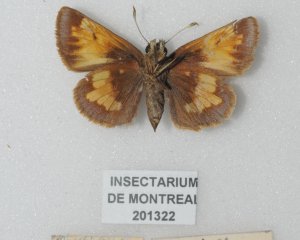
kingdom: Animalia
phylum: Arthropoda
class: Insecta
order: Lepidoptera
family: Hesperiidae
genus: Lon
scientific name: Lon hobomok
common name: Hobomok Skipper
